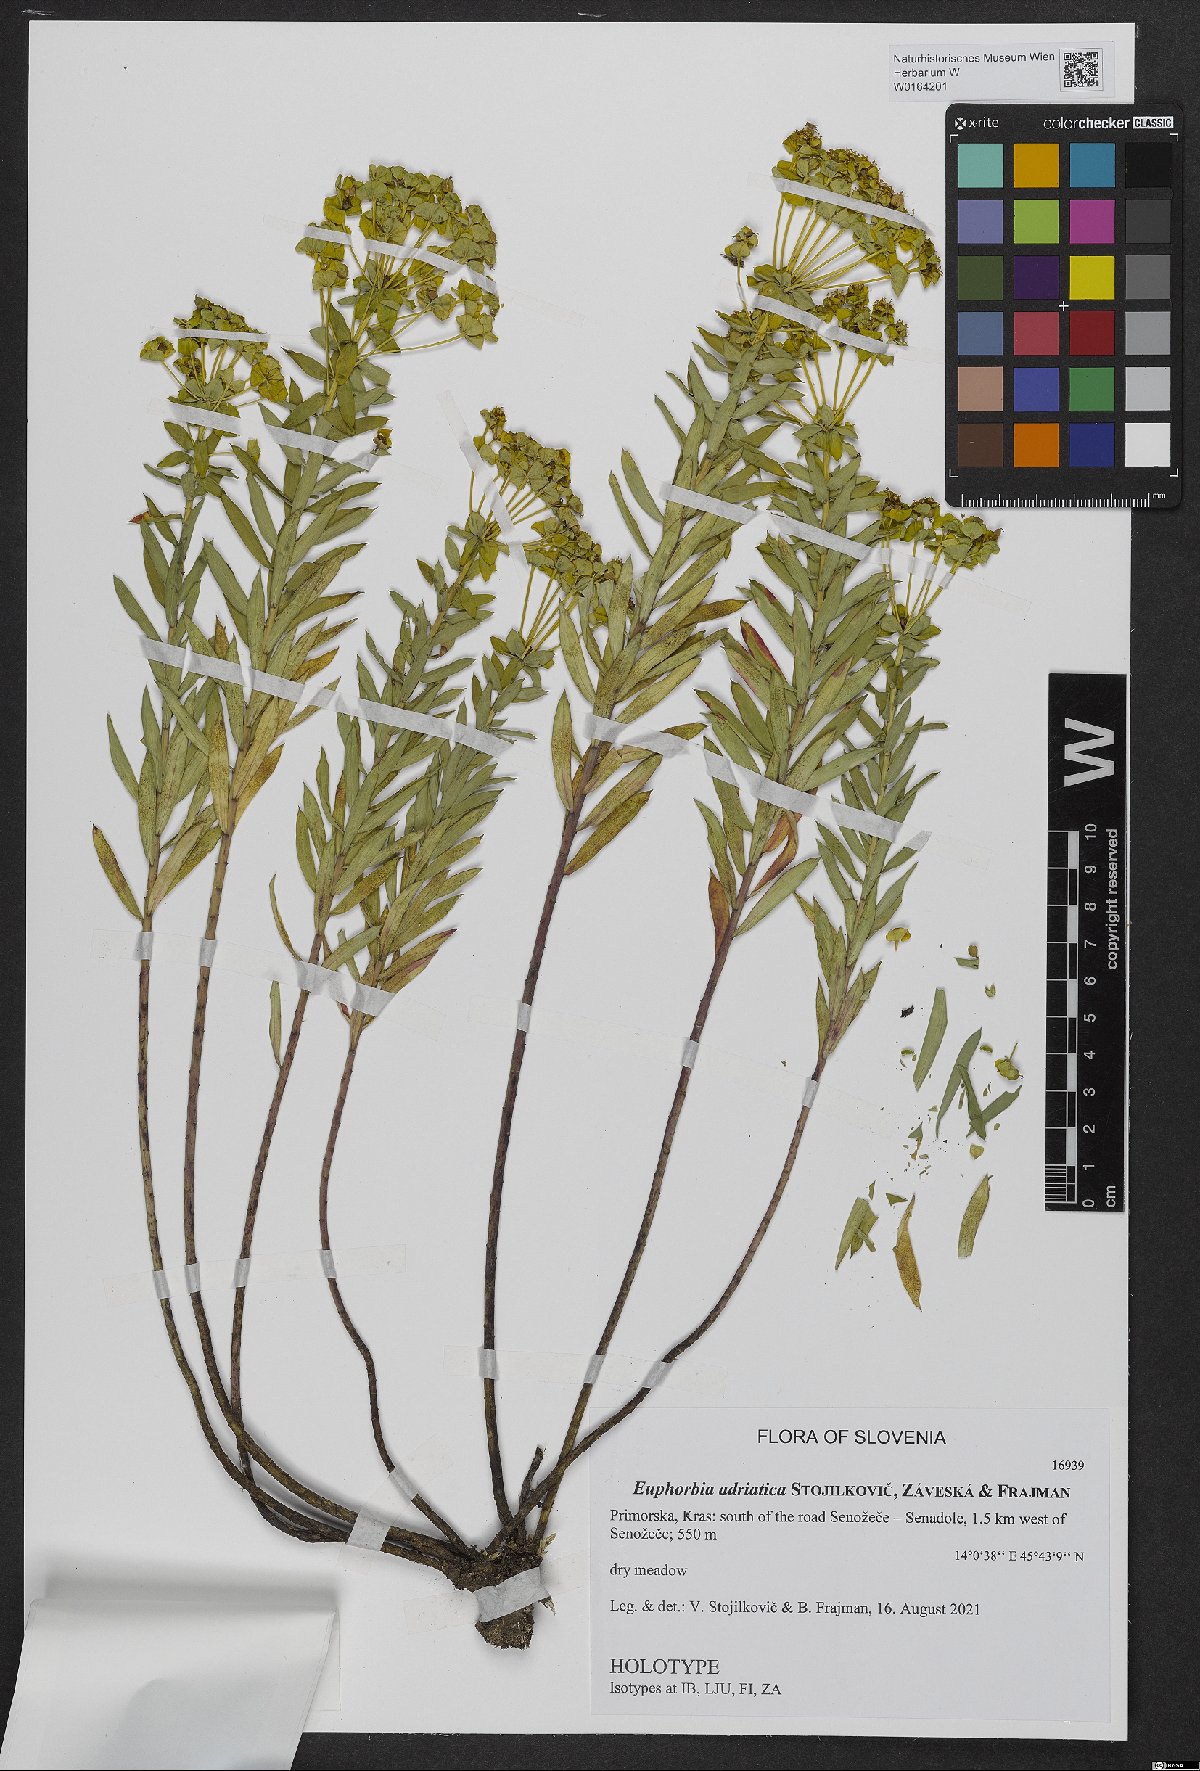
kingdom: Plantae
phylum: Tracheophyta
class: Magnoliopsida
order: Malpighiales
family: Euphorbiaceae
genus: Euphorbia
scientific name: Euphorbia
